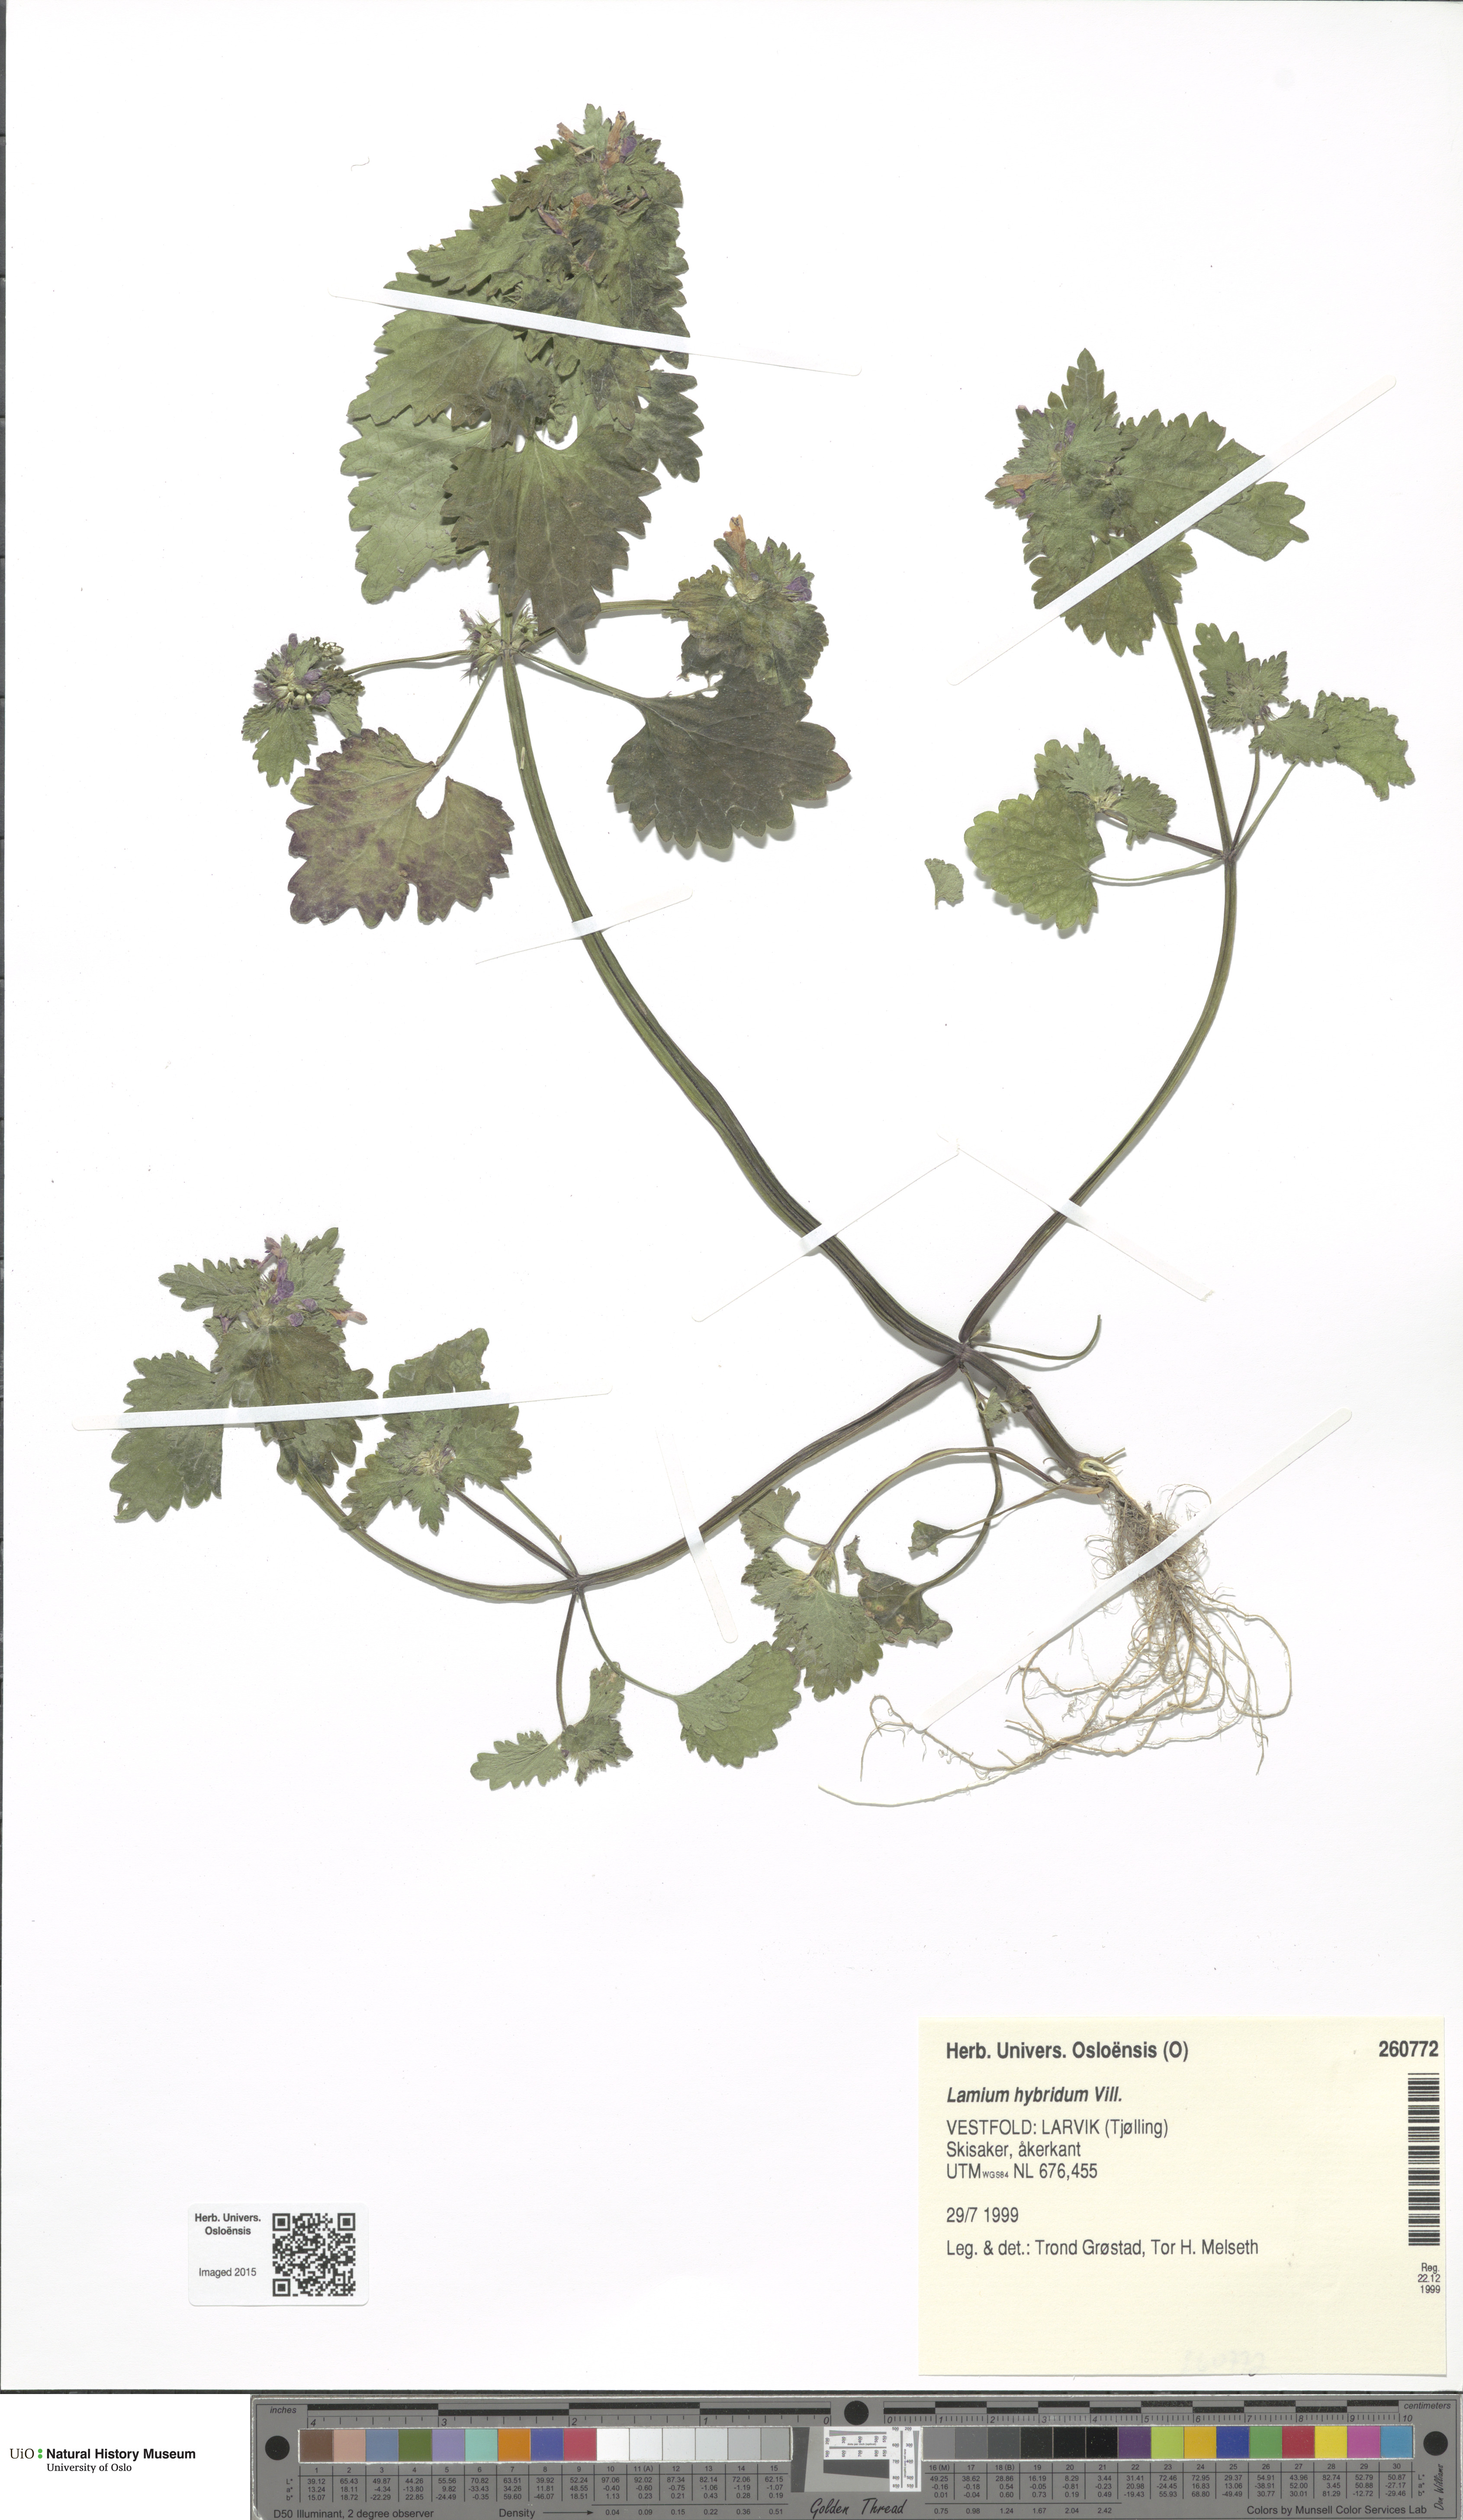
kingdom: Plantae
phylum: Tracheophyta
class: Magnoliopsida
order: Lamiales
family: Lamiaceae
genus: Lamium
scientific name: Lamium hybridum
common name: Cut-leaved dead-nettle
